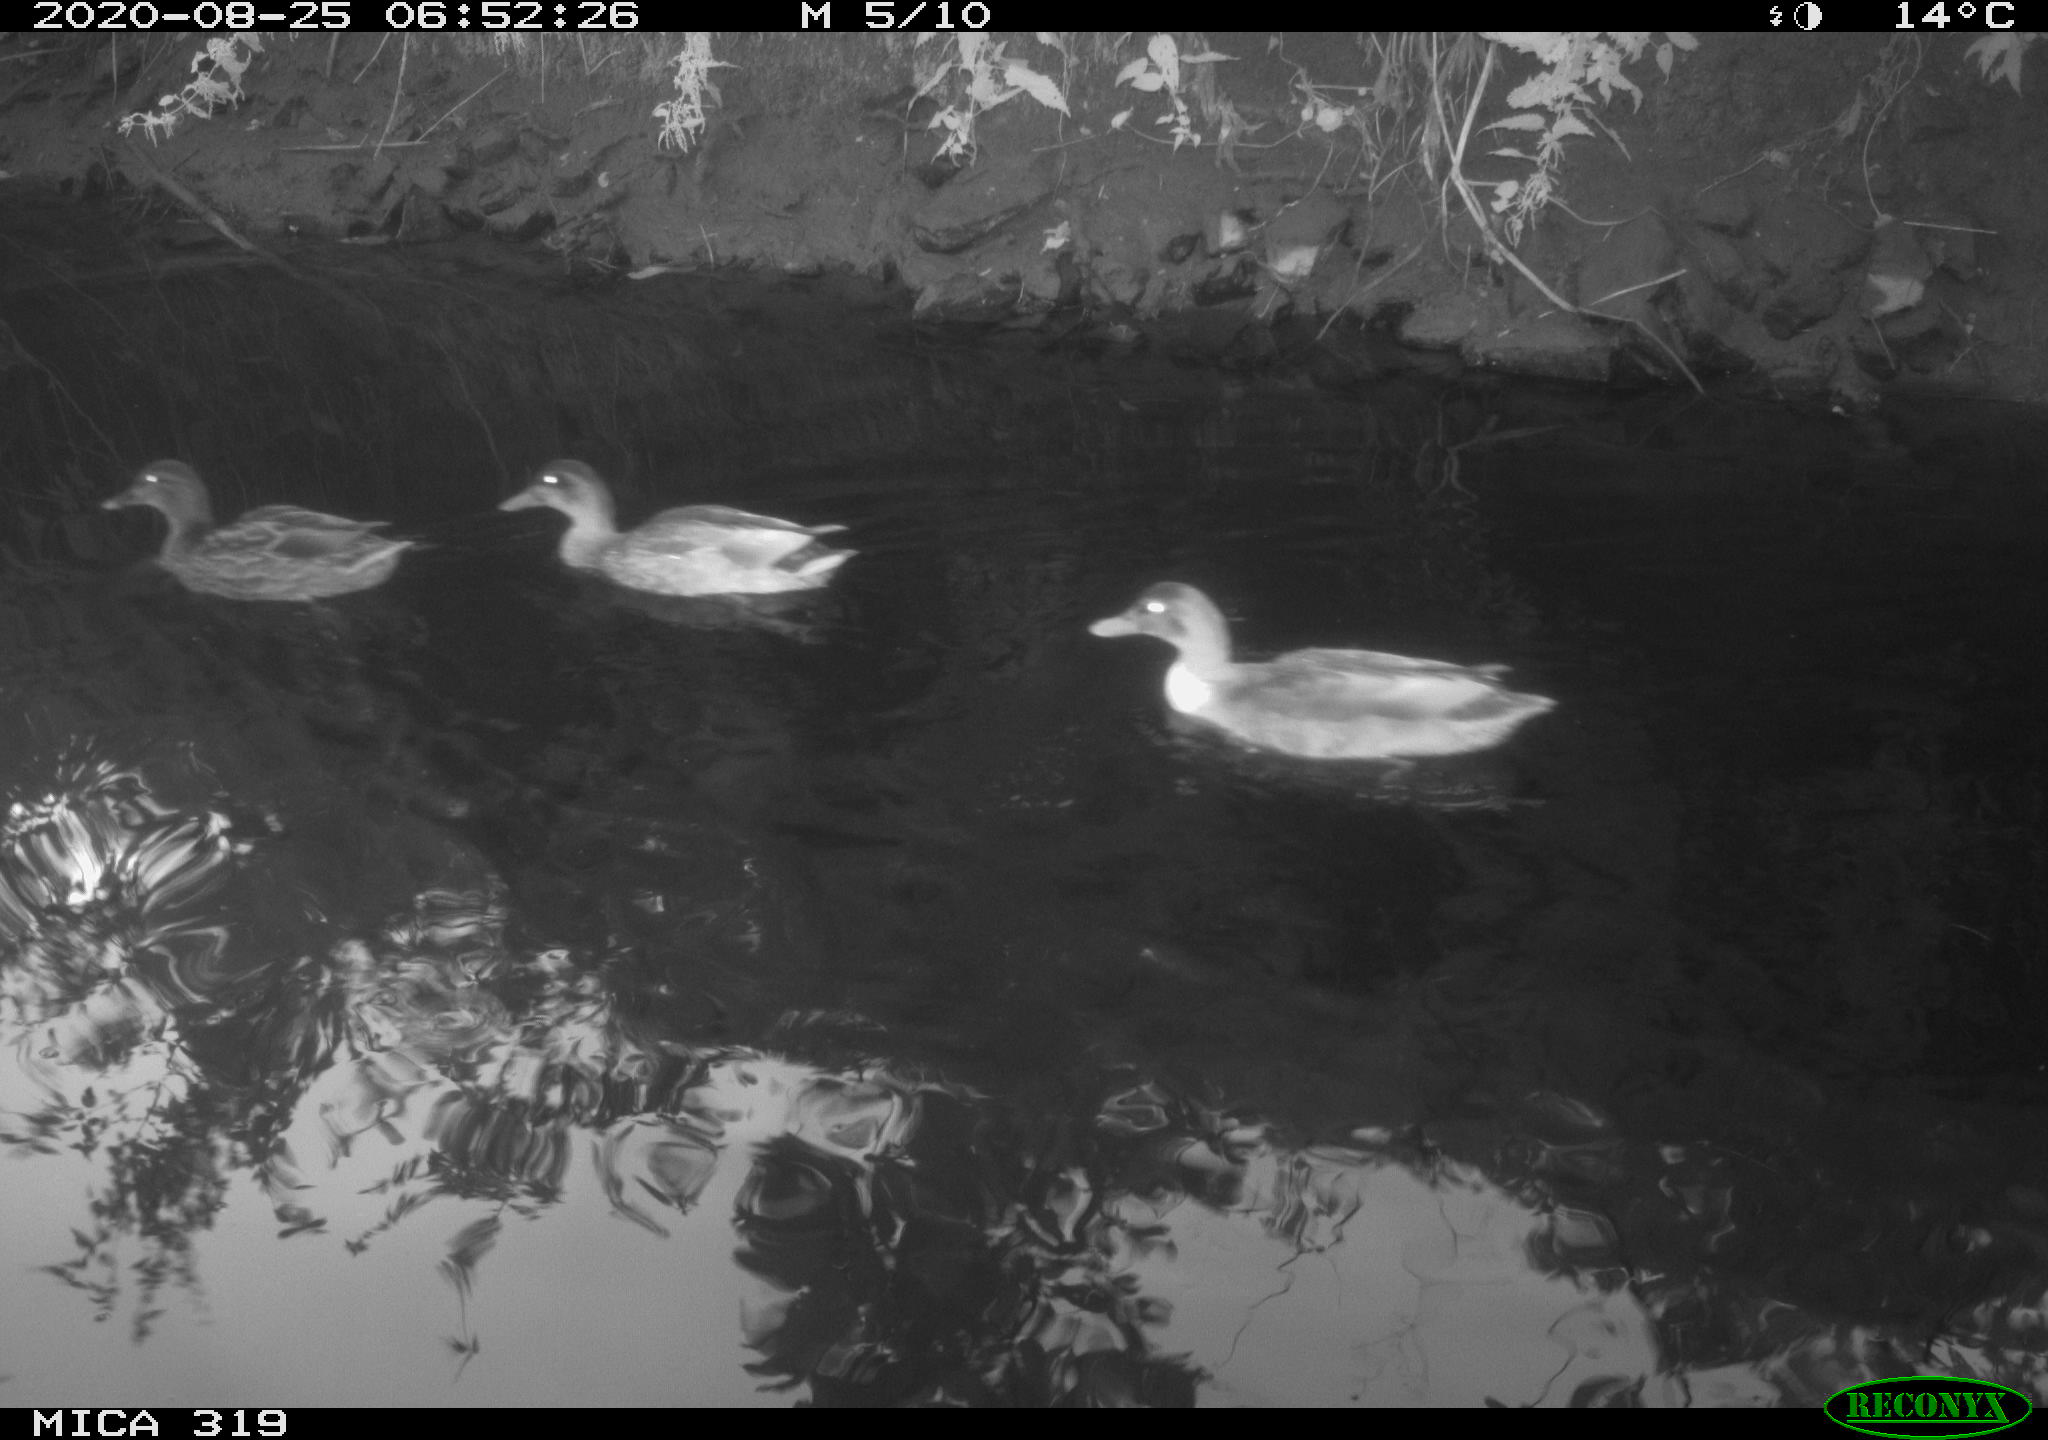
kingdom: Animalia
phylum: Chordata
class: Aves
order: Anseriformes
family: Anatidae
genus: Anas
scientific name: Anas platyrhynchos
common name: Mallard
